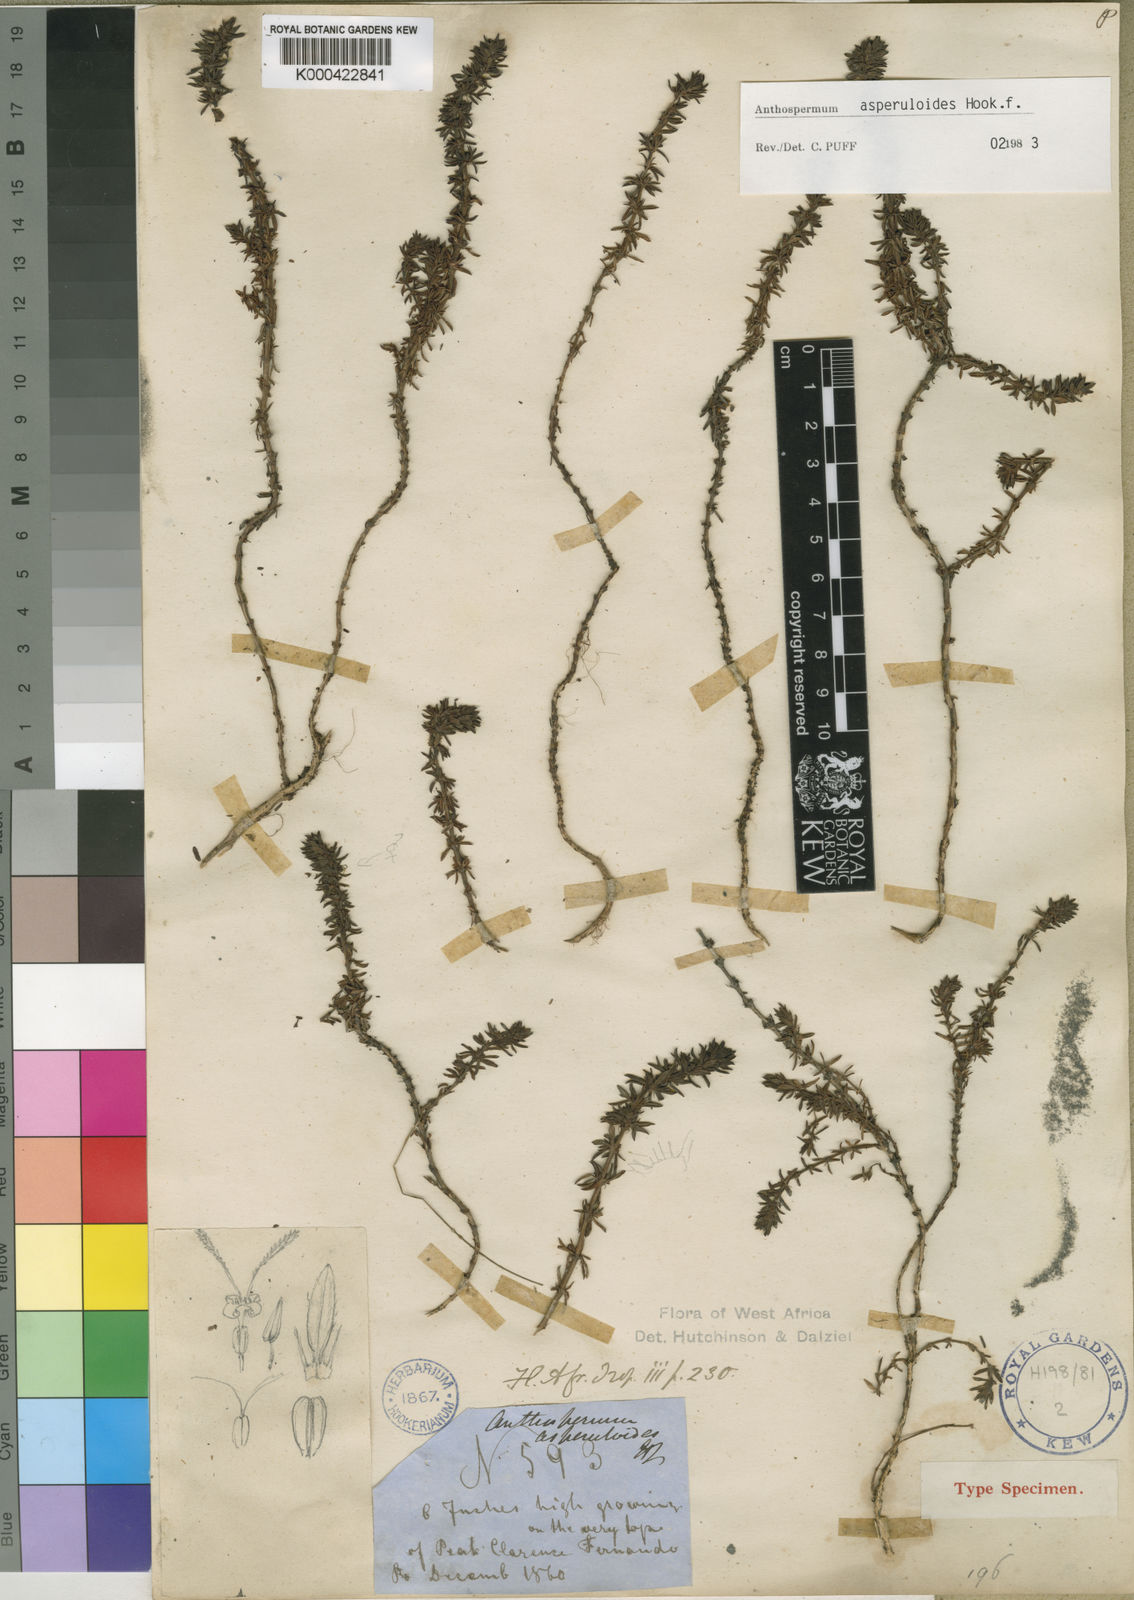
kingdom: Plantae
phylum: Tracheophyta
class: Magnoliopsida
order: Gentianales
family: Rubiaceae
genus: Anthospermum
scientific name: Anthospermum asperuloides
